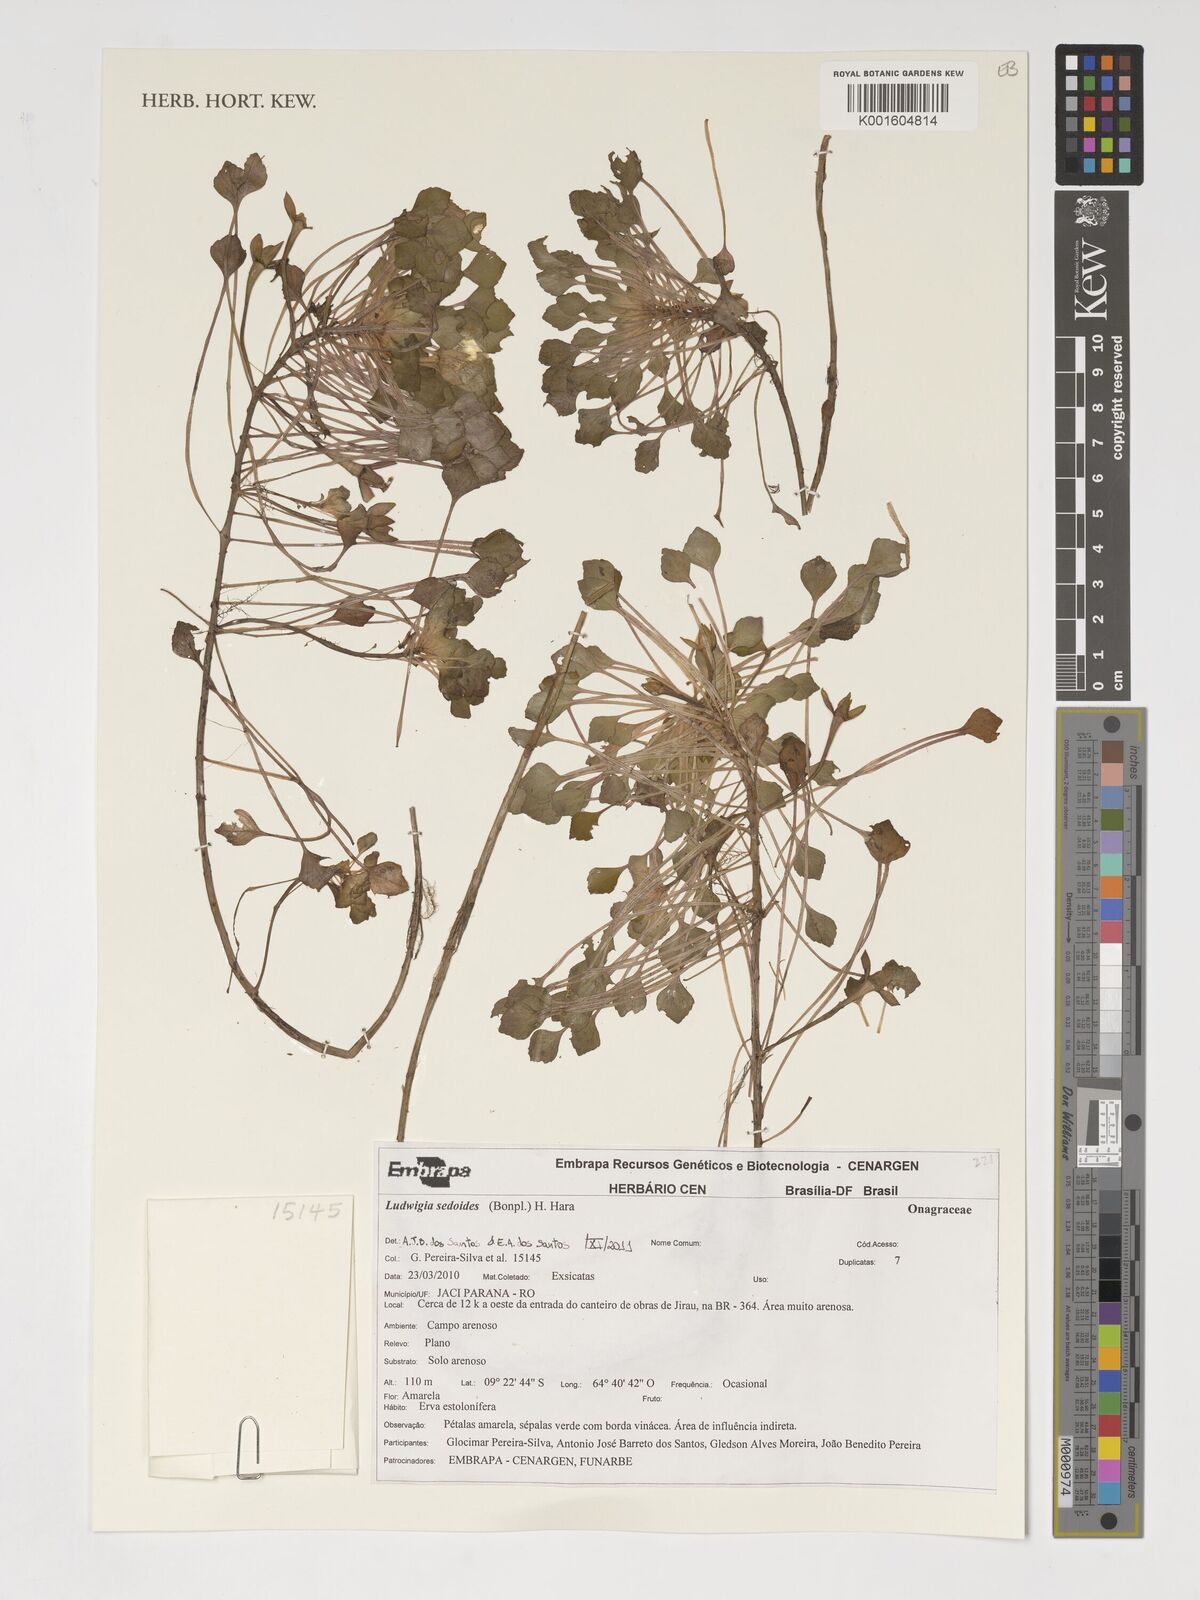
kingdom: Plantae
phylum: Tracheophyta
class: Magnoliopsida
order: Myrtales
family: Onagraceae
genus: Ludwigia
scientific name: Ludwigia sedoides
